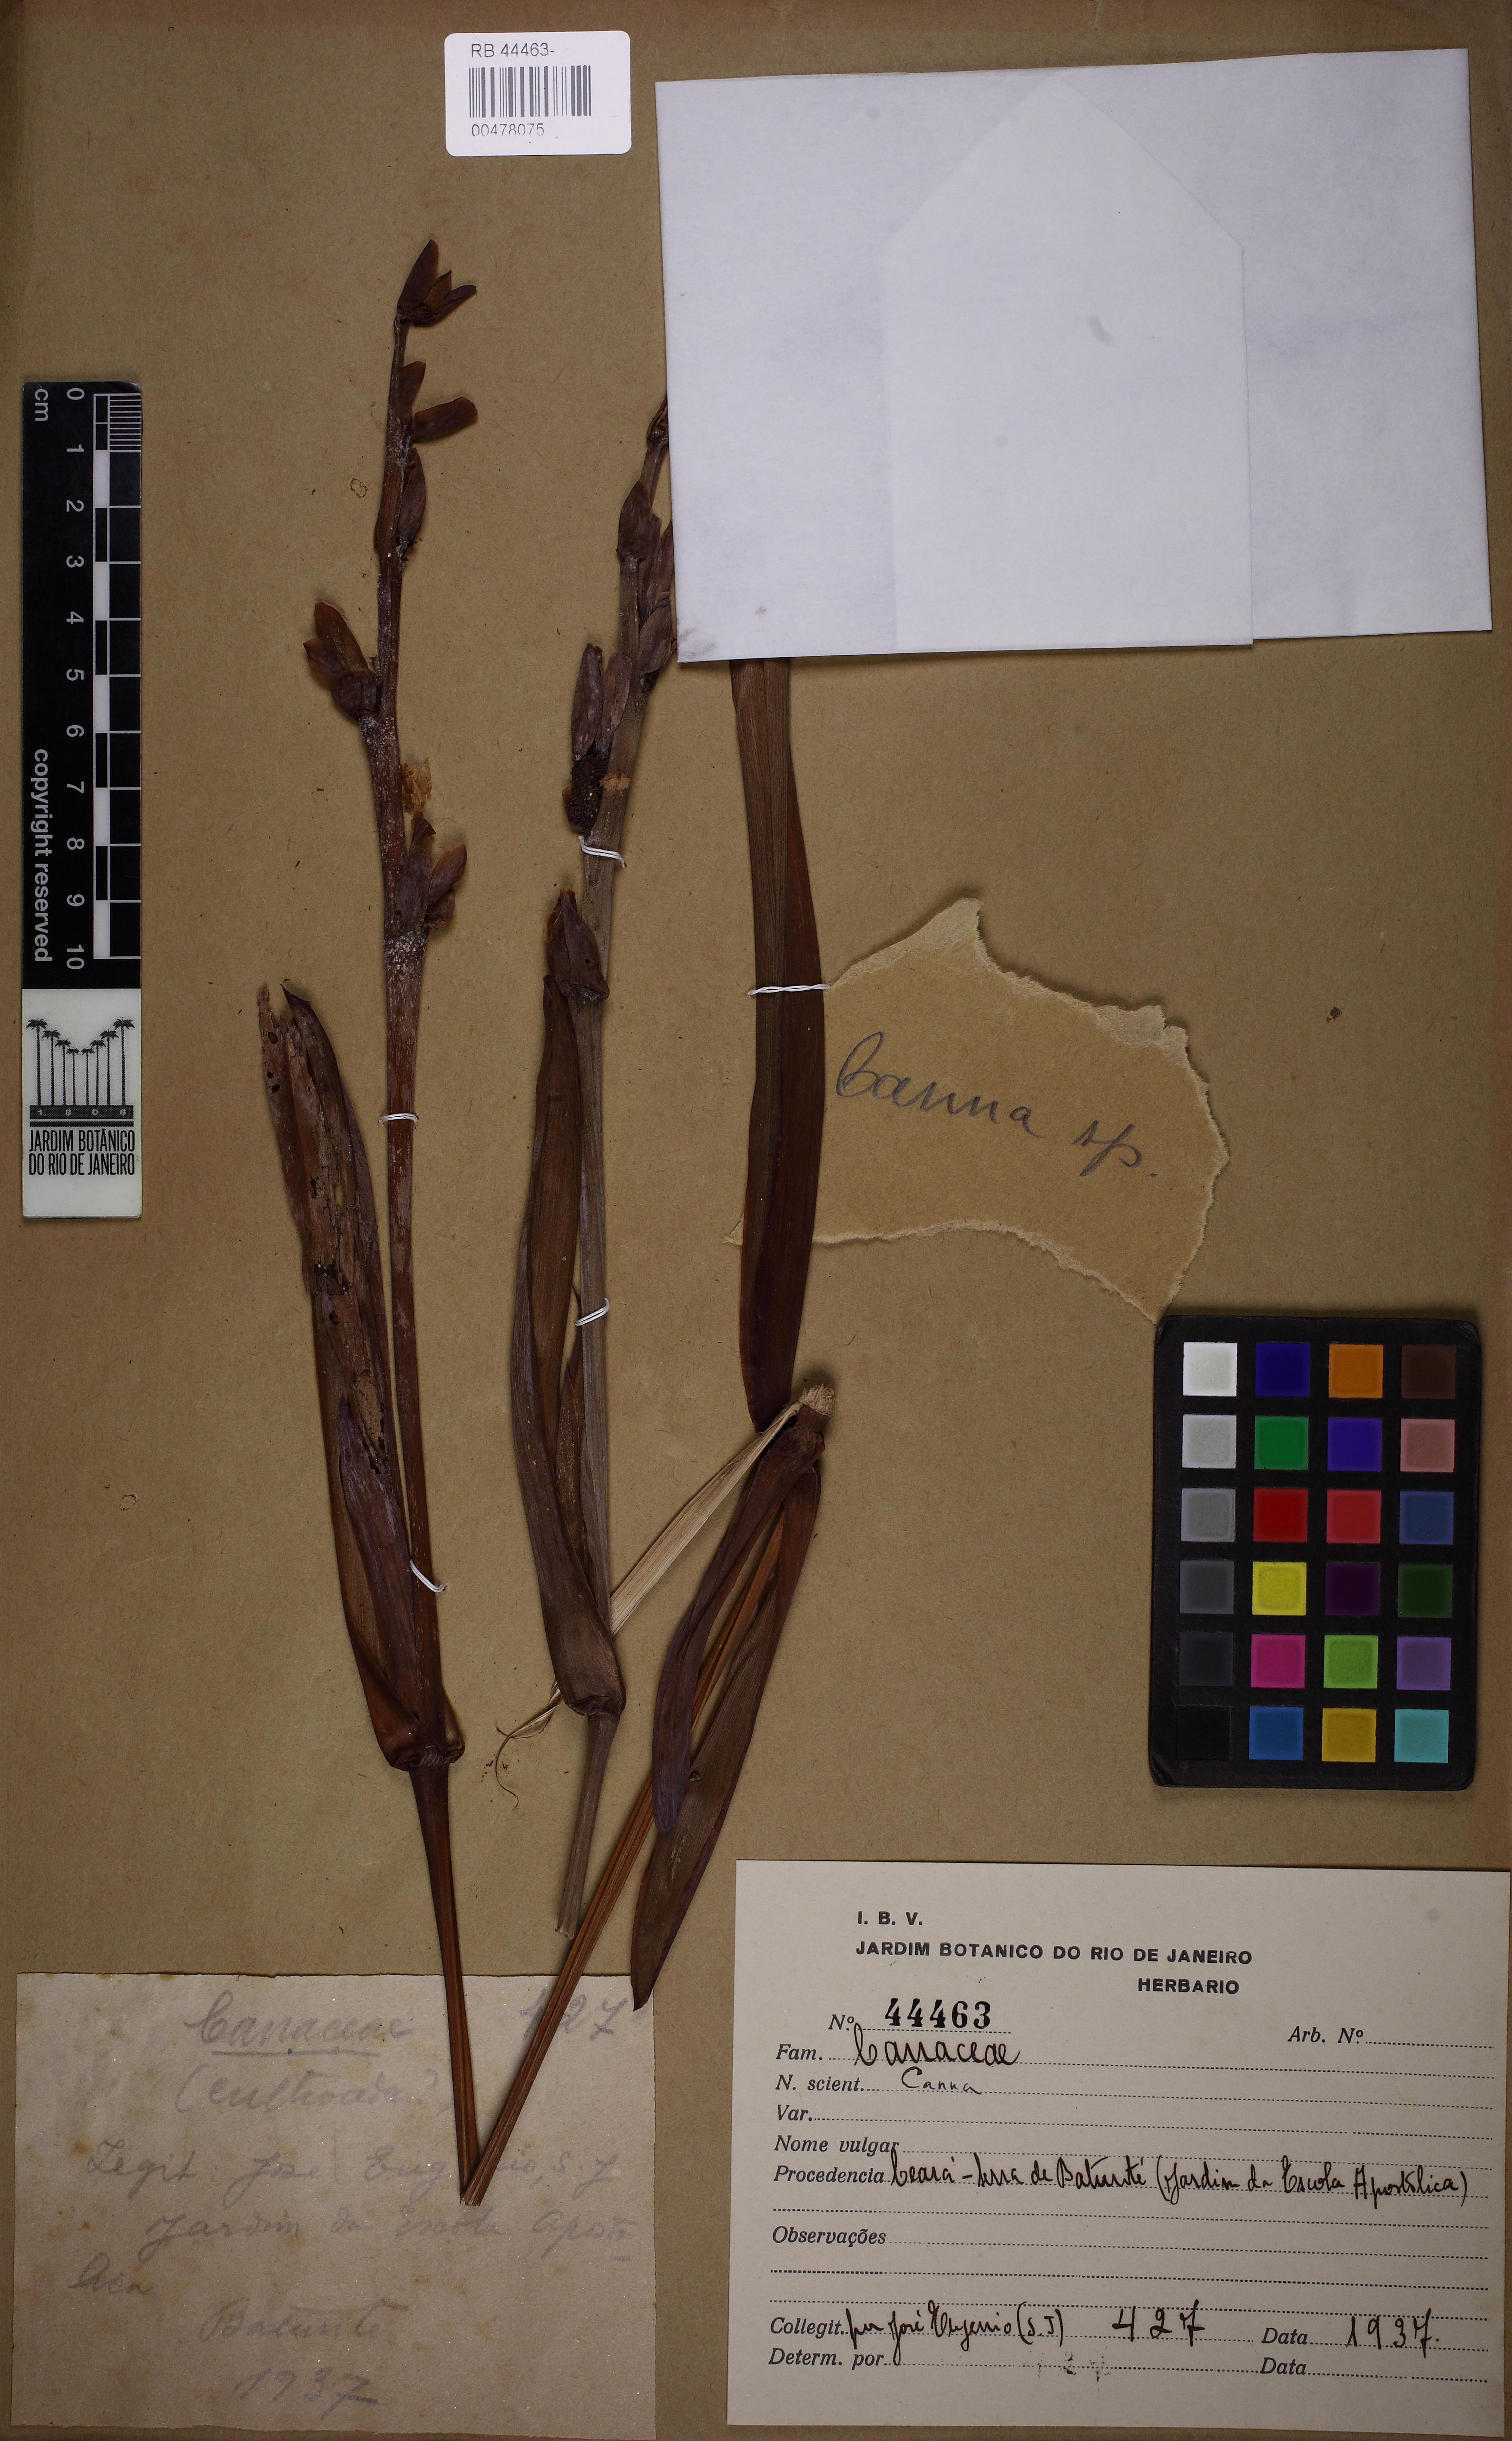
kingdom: Plantae
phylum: Tracheophyta
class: Liliopsida
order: Zingiberales
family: Cannaceae
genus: Canna
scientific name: Canna
